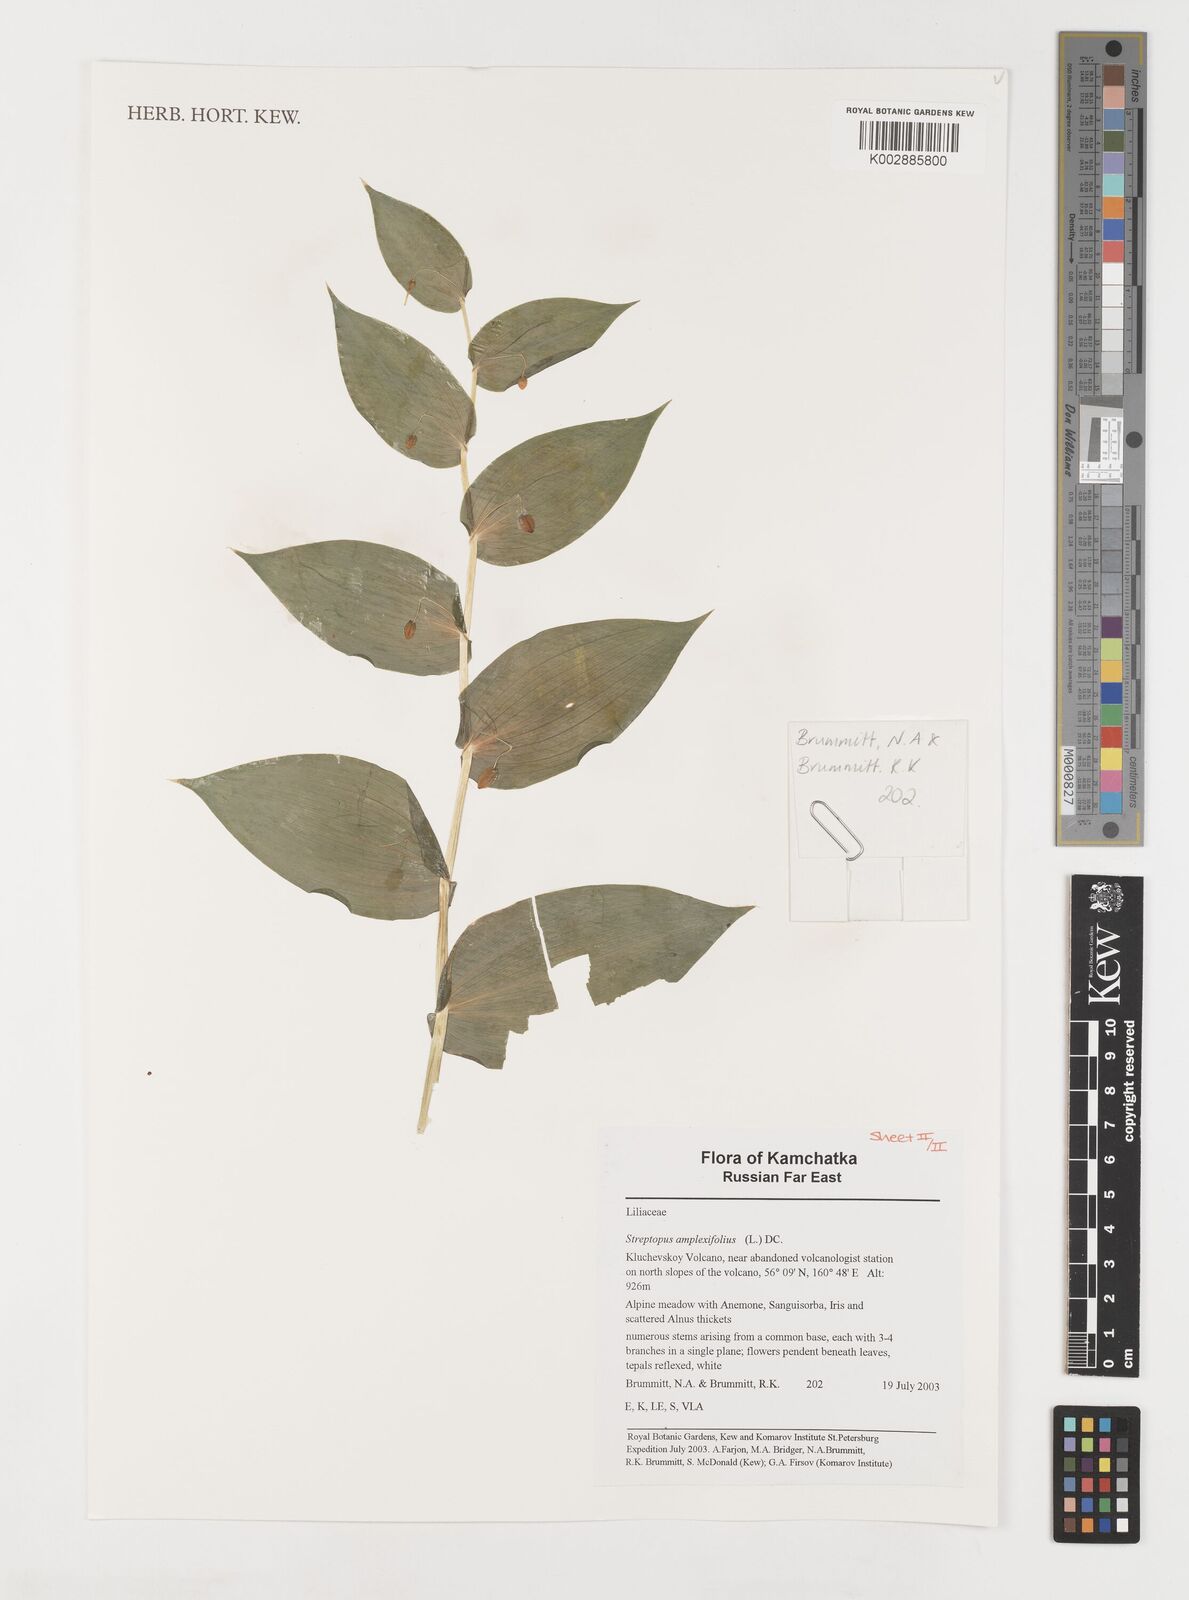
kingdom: Plantae
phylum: Tracheophyta
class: Liliopsida
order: Liliales
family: Liliaceae
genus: Streptopus
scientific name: Streptopus amplexifolius
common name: Clasp twisted stalk
